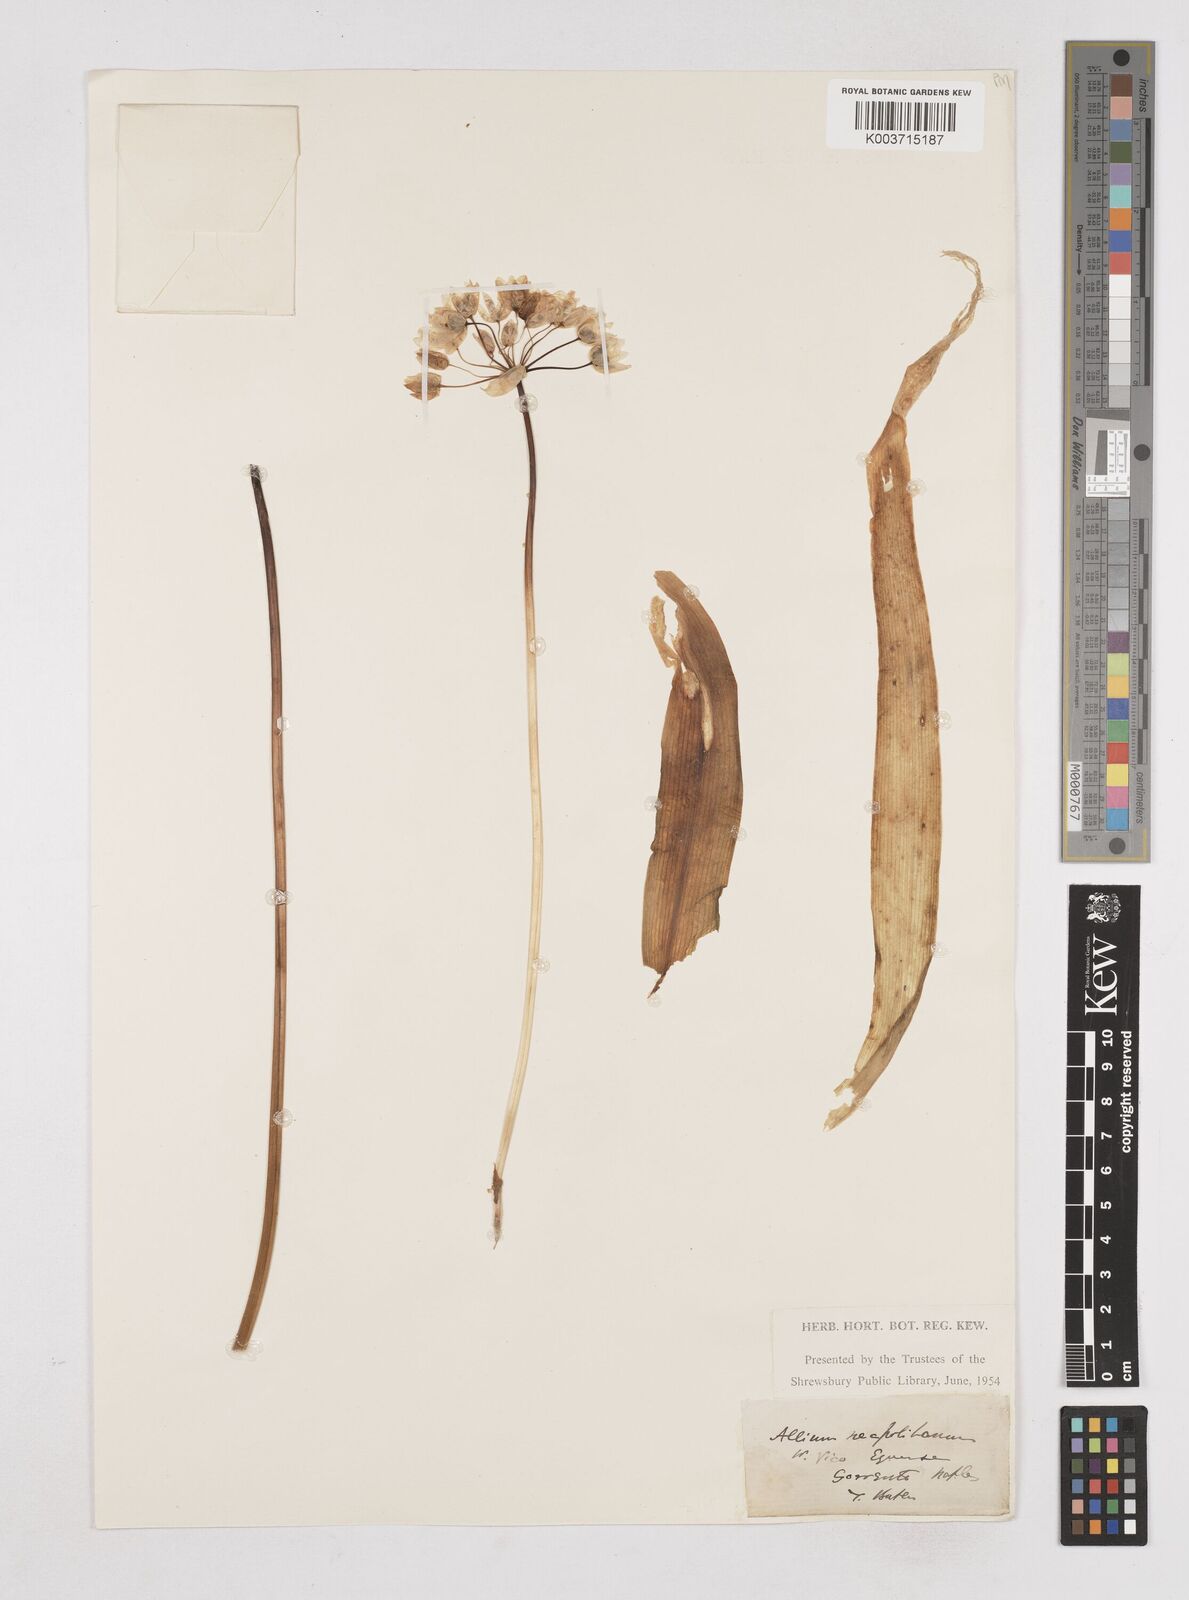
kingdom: Plantae
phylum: Tracheophyta
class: Liliopsida
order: Asparagales
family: Amaryllidaceae
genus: Allium
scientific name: Allium neapolitanum
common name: Neapolitan garlic
